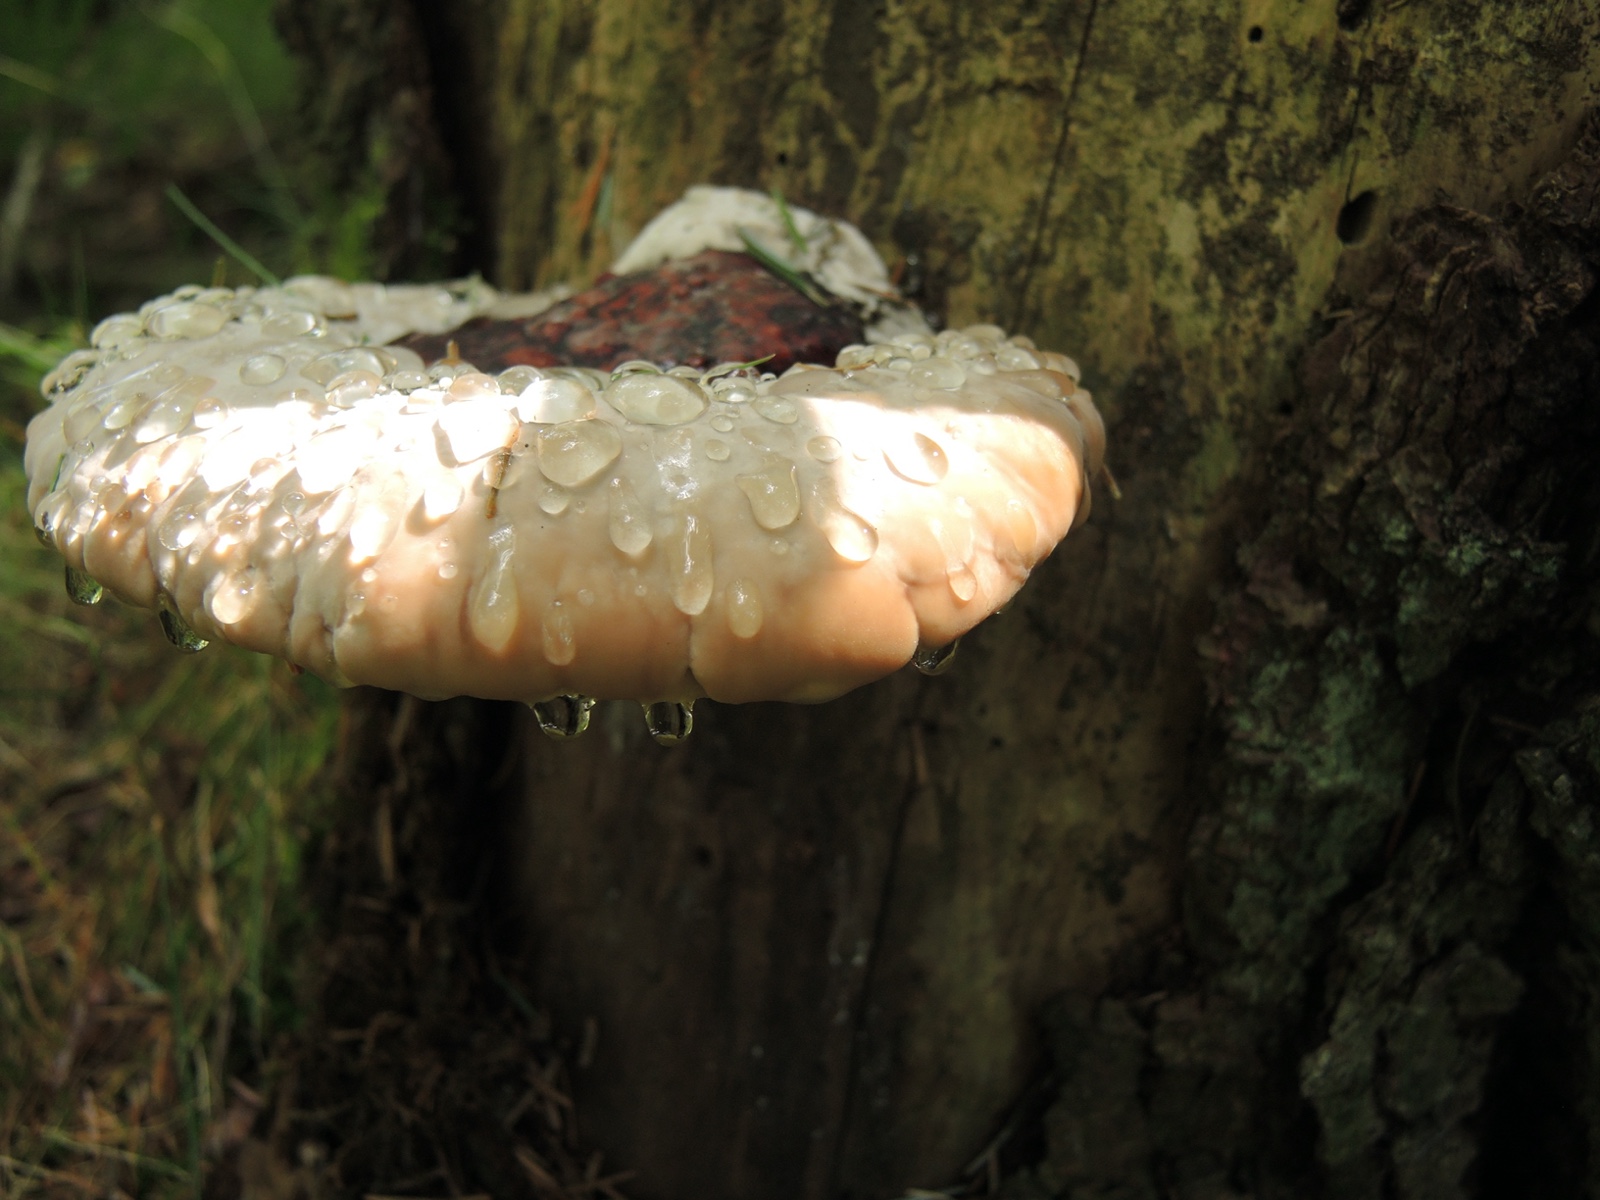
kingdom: Fungi
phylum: Basidiomycota
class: Agaricomycetes
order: Polyporales
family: Fomitopsidaceae
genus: Fomitopsis
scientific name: Fomitopsis pinicola
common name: randbæltet hovporesvamp
